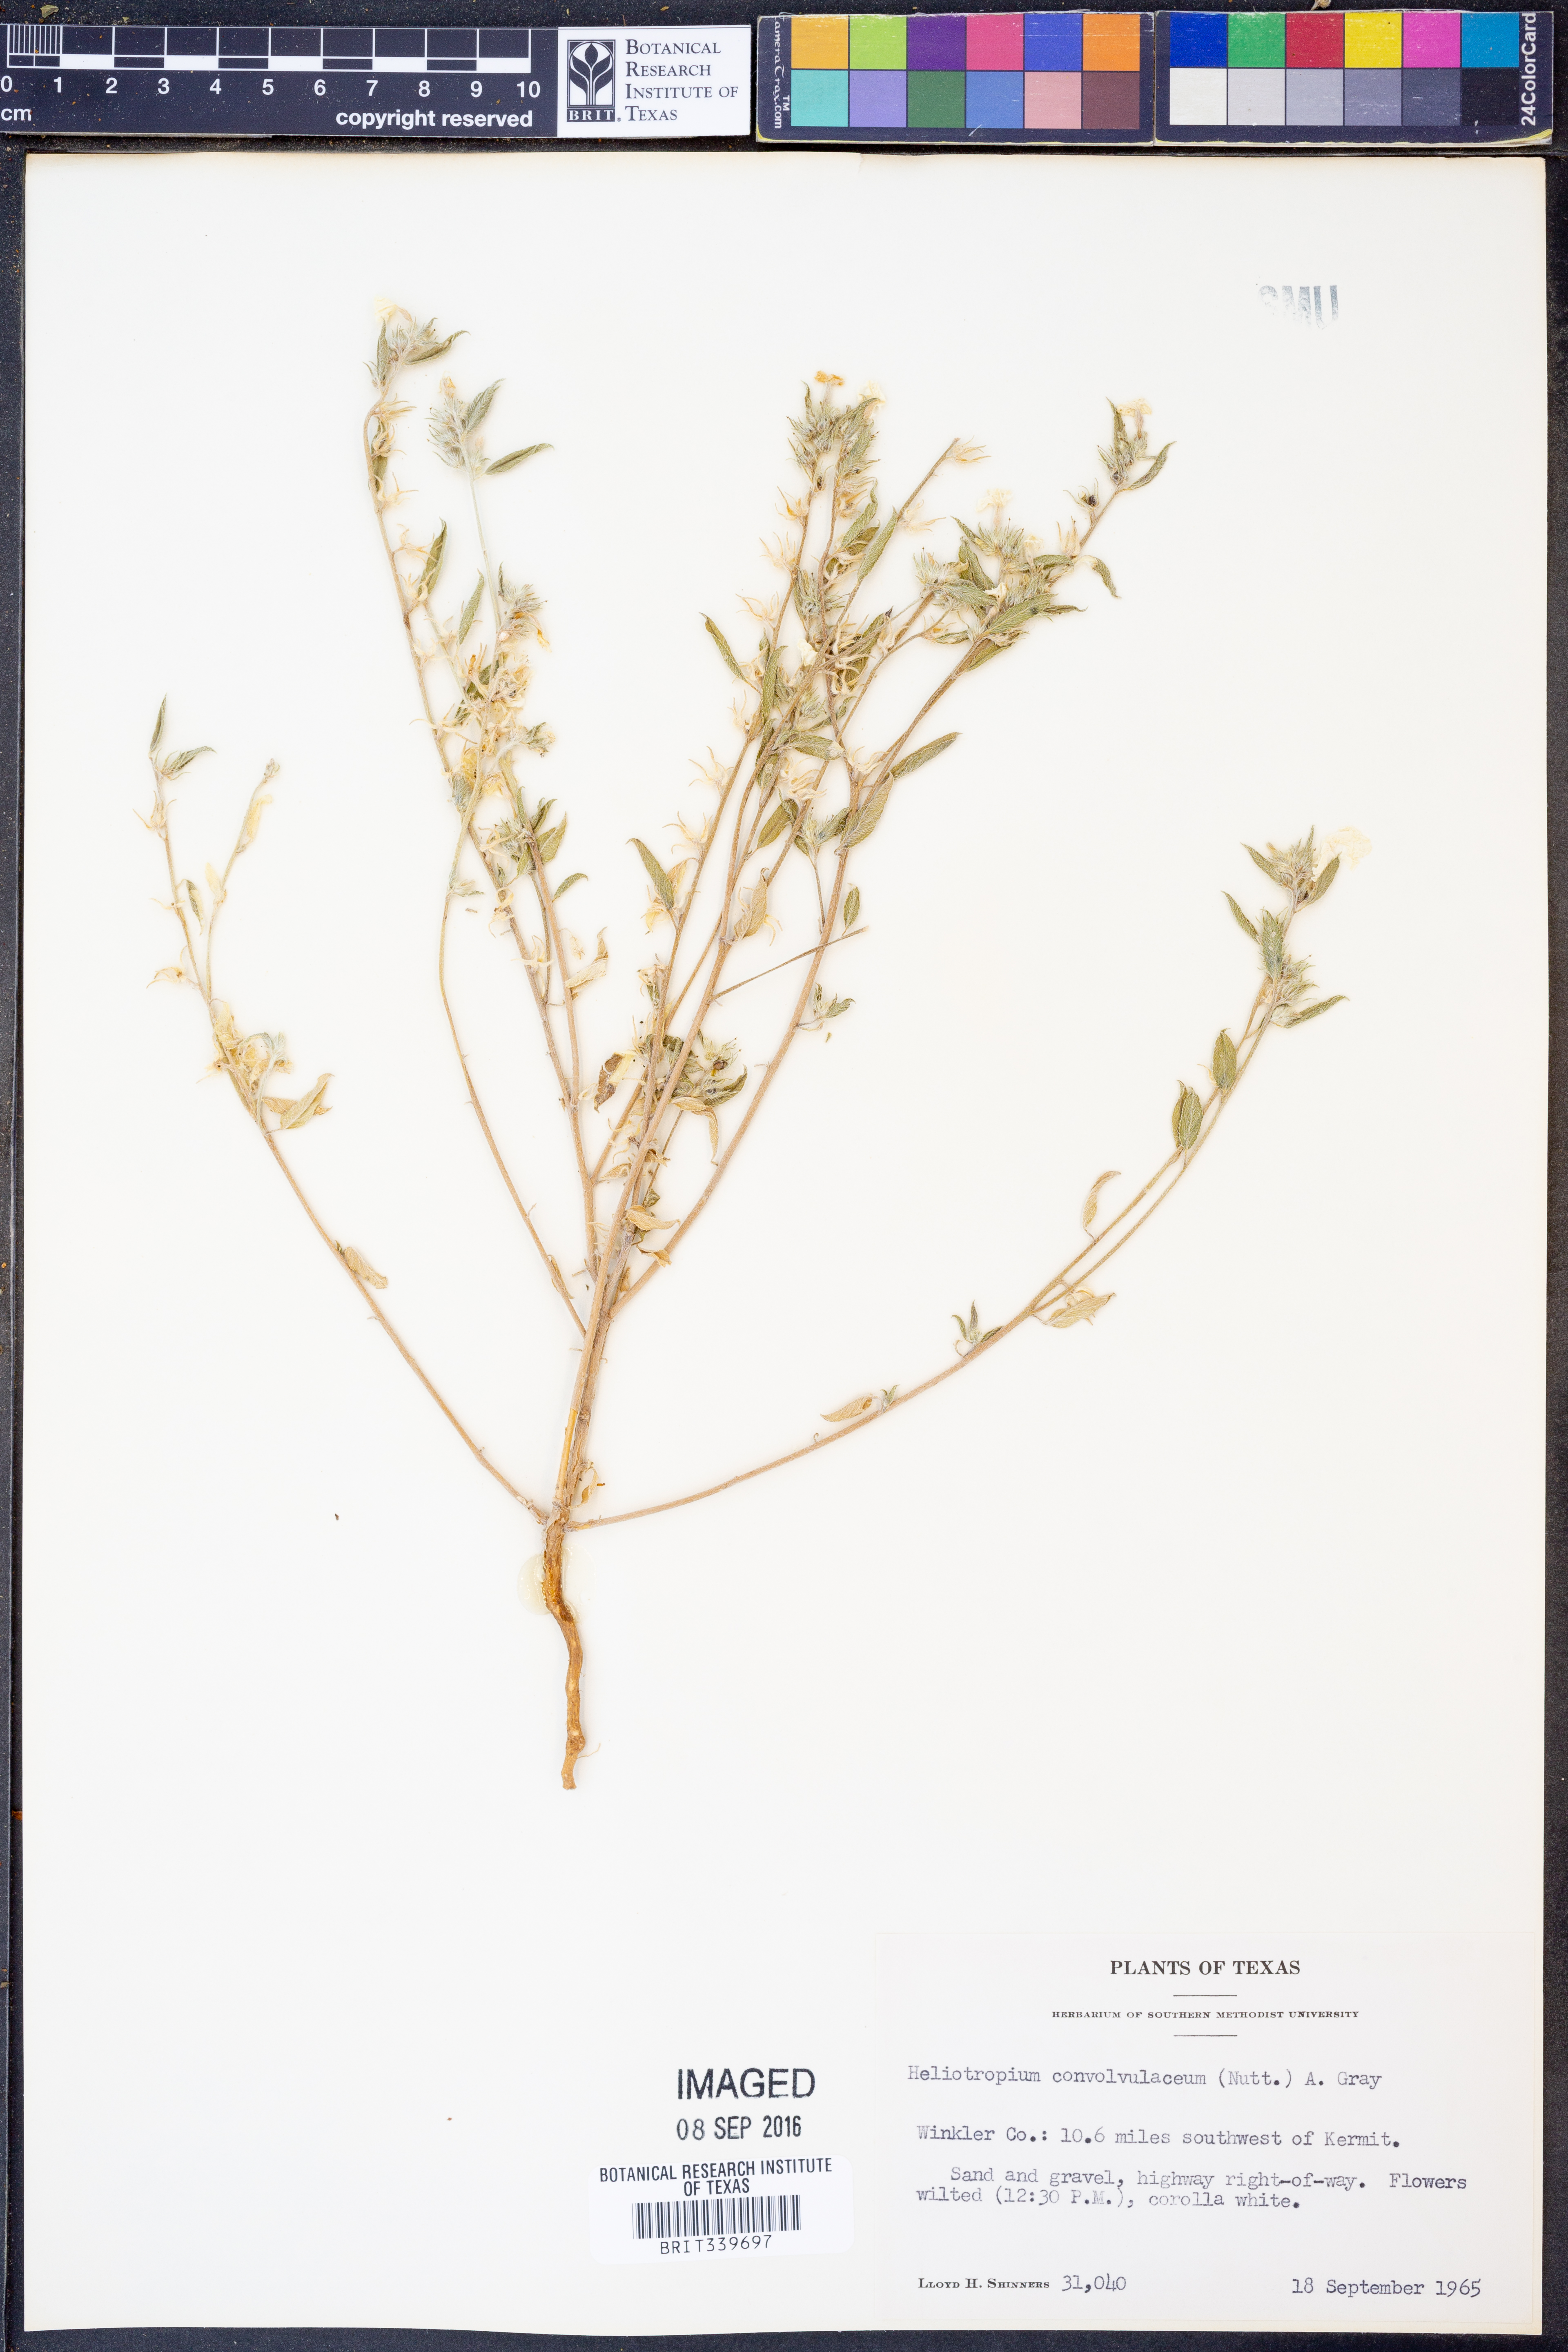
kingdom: Plantae
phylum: Tracheophyta
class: Magnoliopsida
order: Boraginales
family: Heliotropiaceae
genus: Euploca
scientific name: Euploca convolvulacea
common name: Bindweed heliotrope
